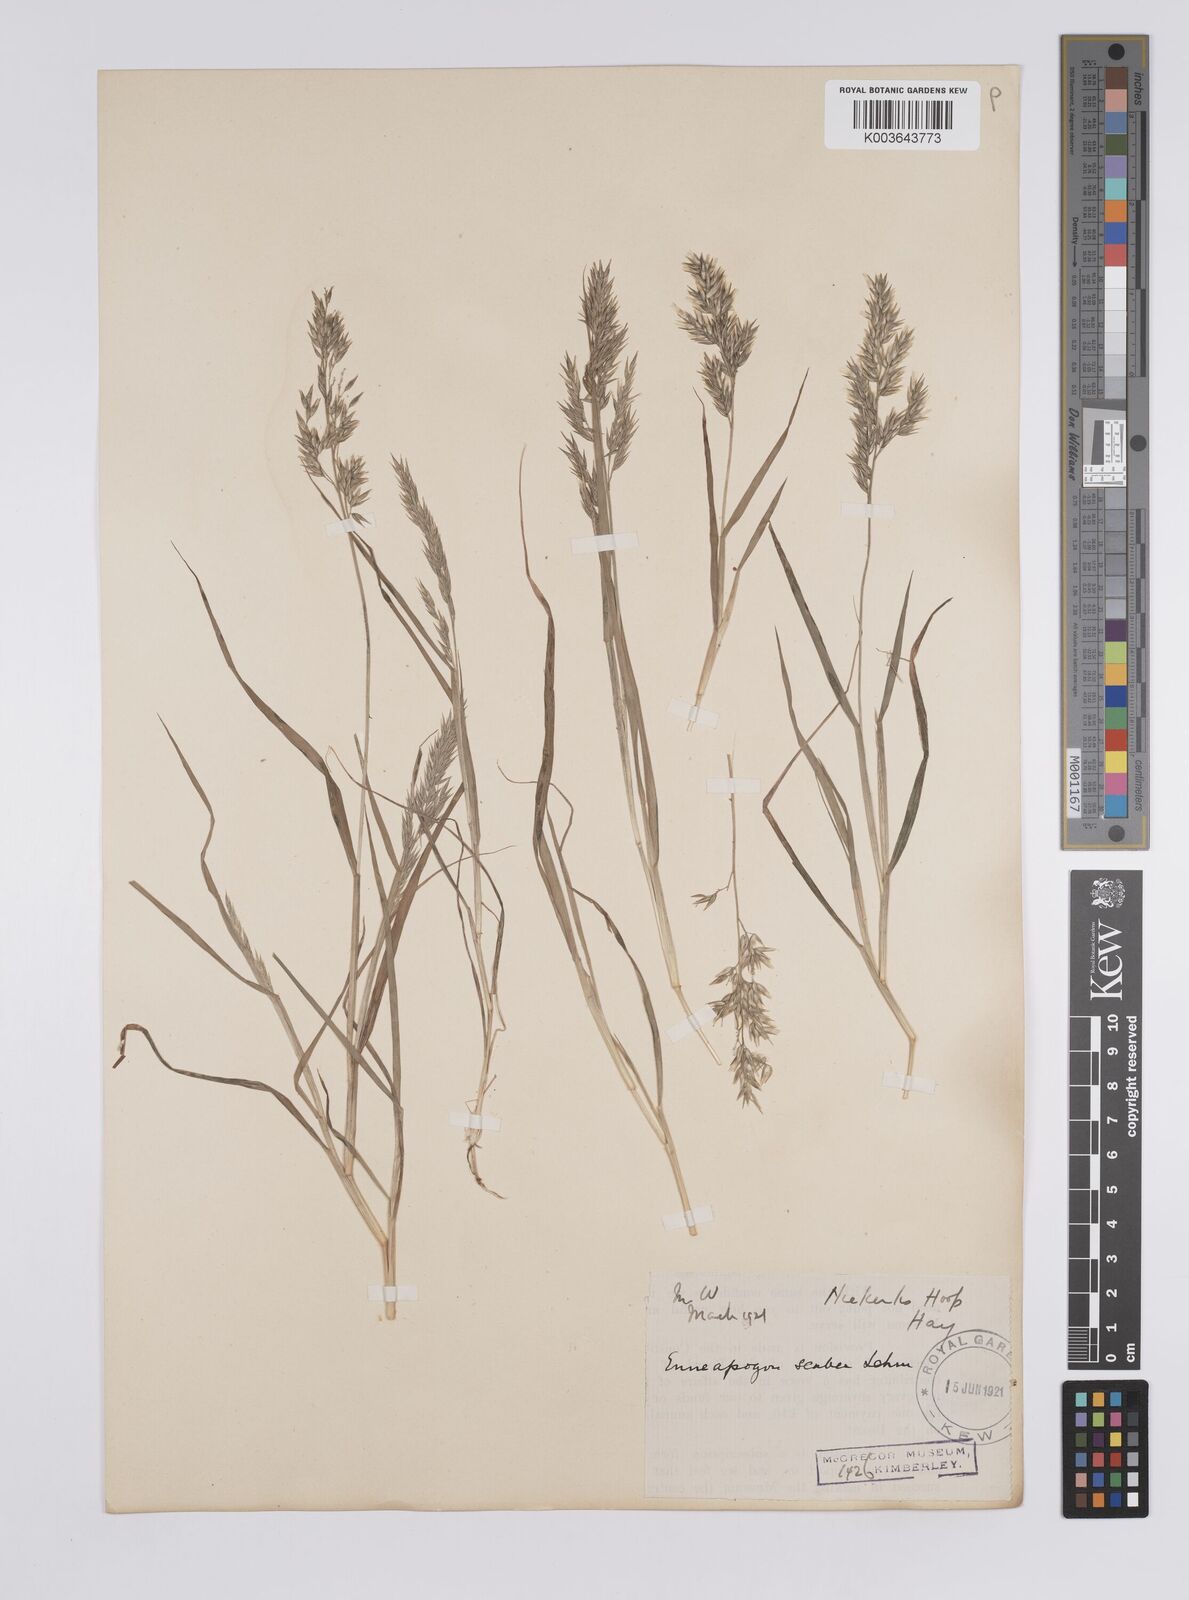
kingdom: Plantae
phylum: Tracheophyta
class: Liliopsida
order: Poales
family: Poaceae
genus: Enneapogon
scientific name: Enneapogon scaber
